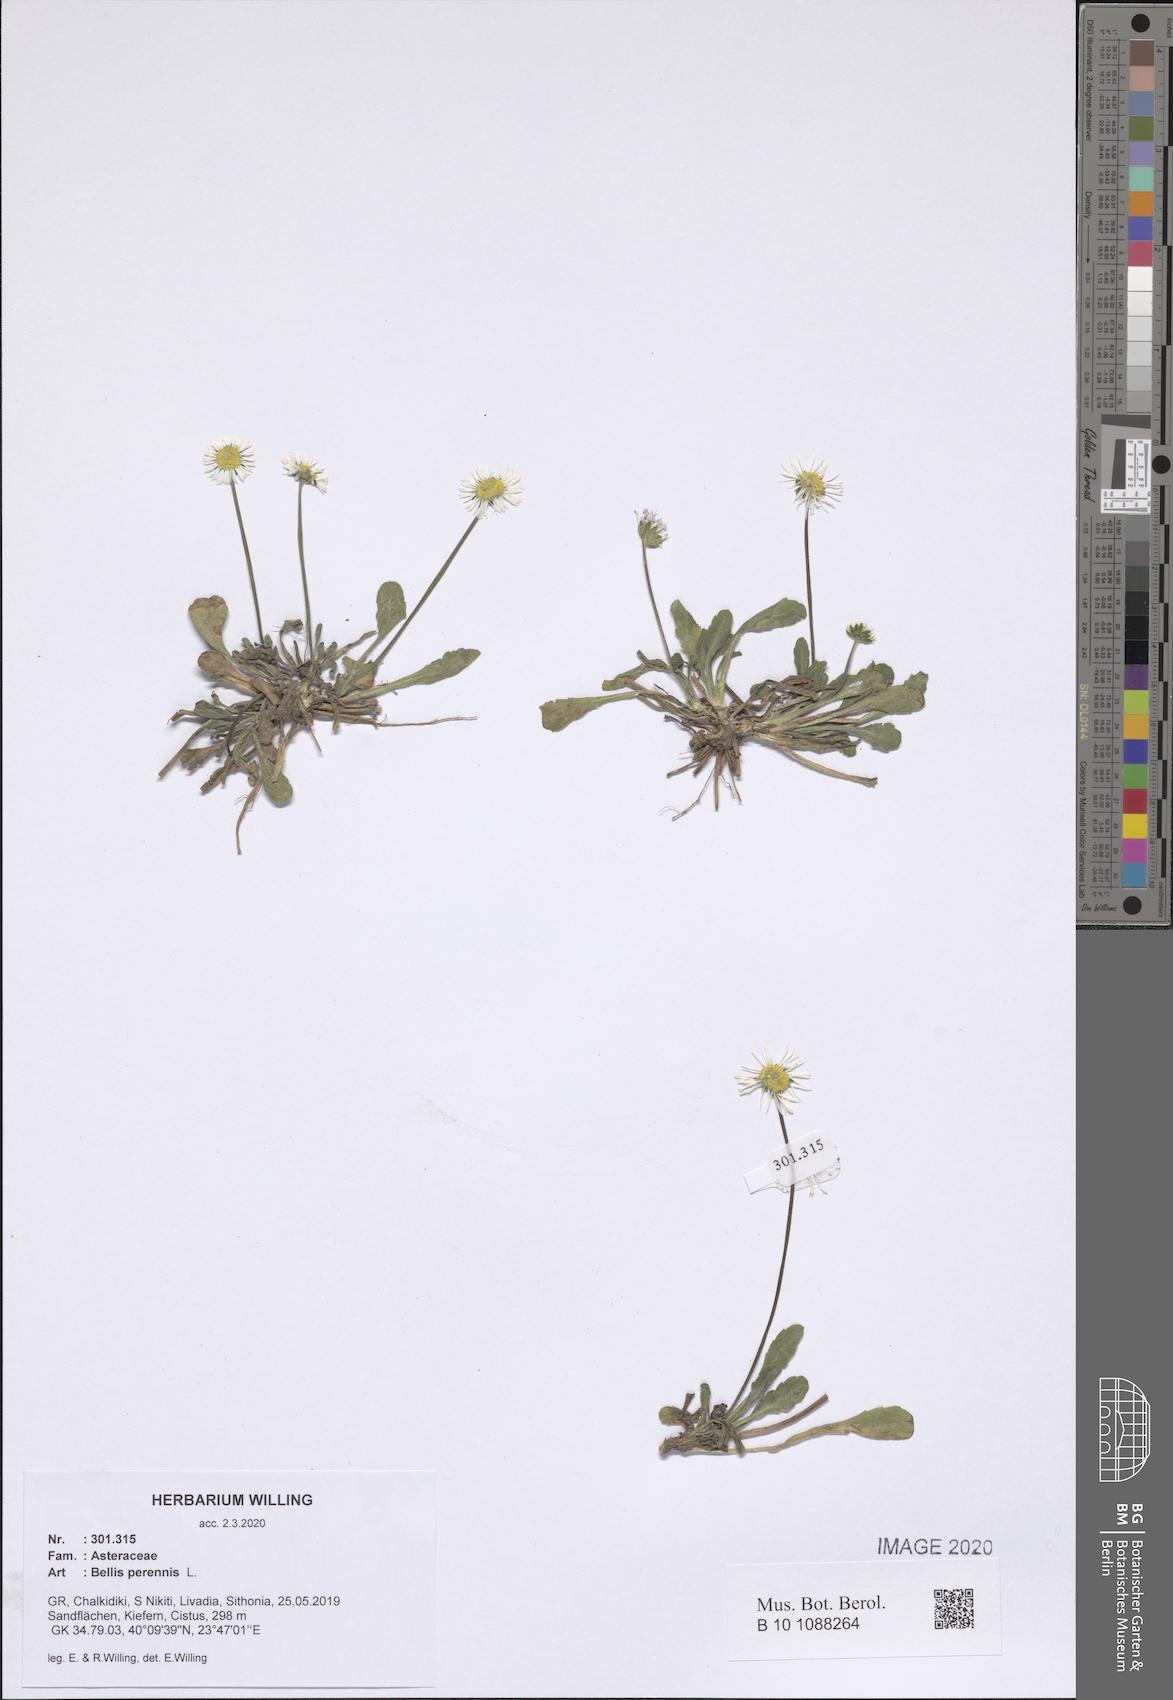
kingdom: Plantae
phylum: Tracheophyta
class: Magnoliopsida
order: Asterales
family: Asteraceae
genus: Bellis
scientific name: Bellis perennis
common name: Lawndaisy
